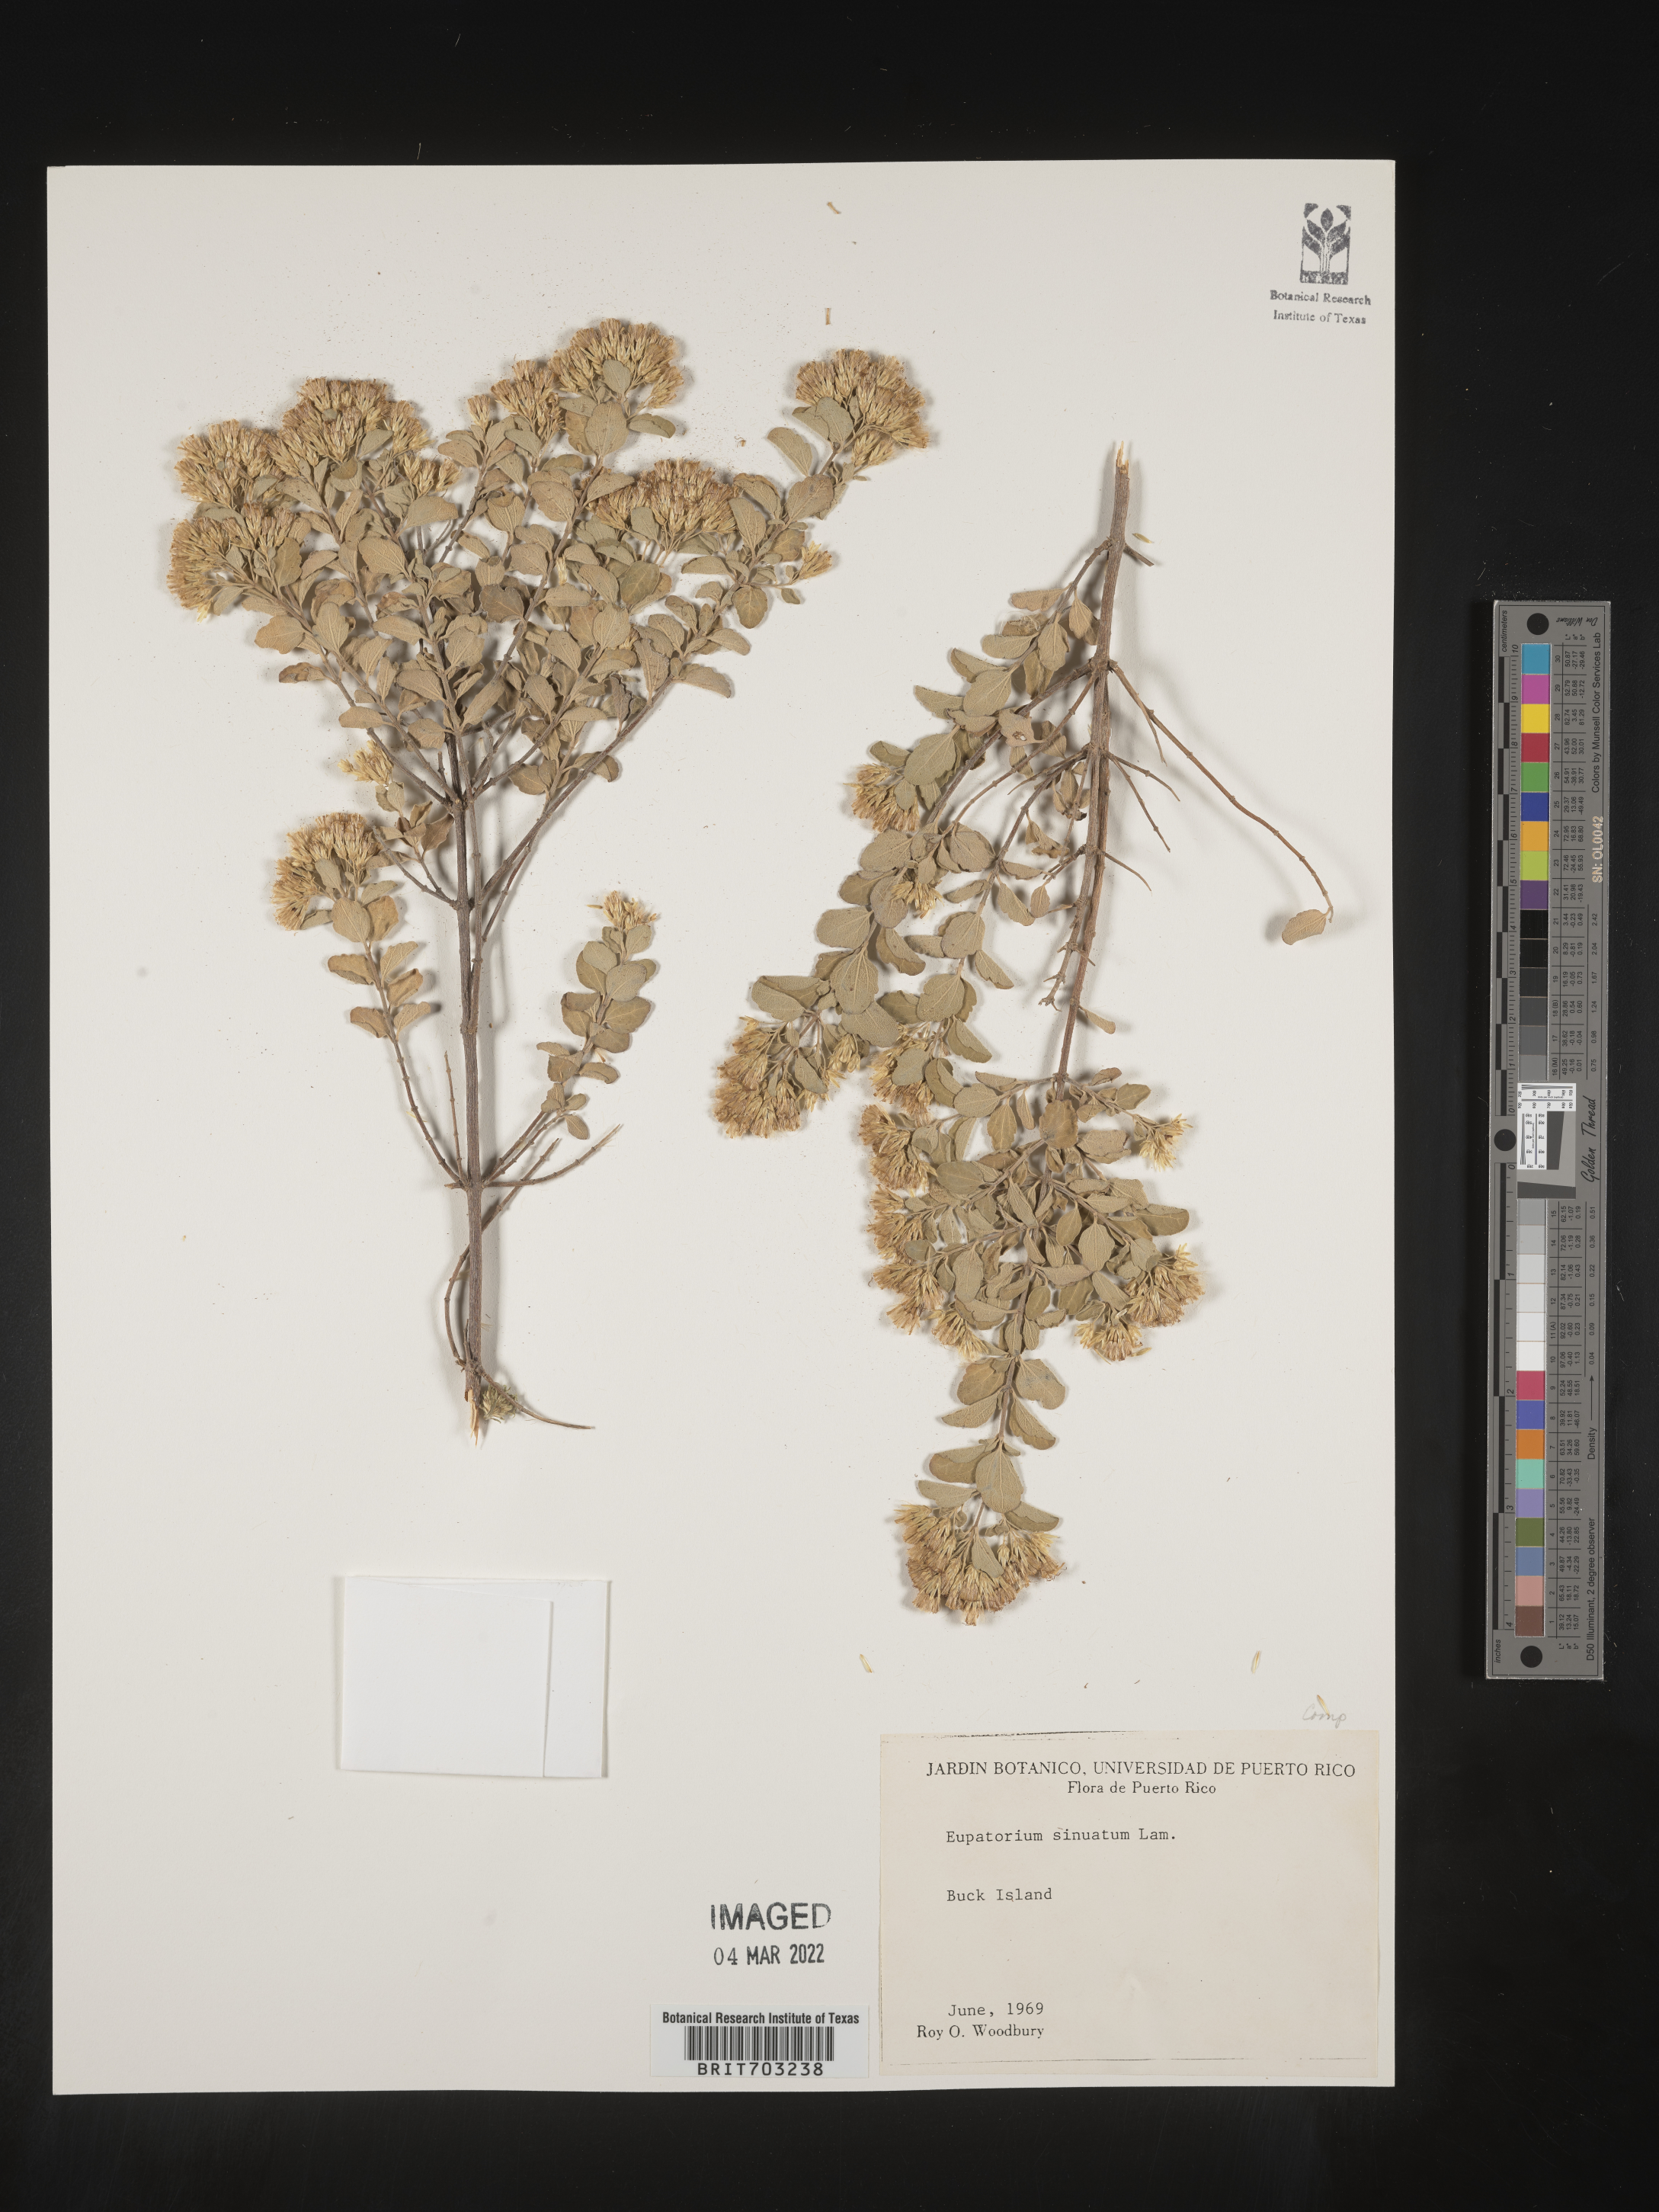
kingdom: Plantae
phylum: Tracheophyta
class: Magnoliopsida
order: Asterales
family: Asteraceae
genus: Eupatorium
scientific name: Eupatorium
